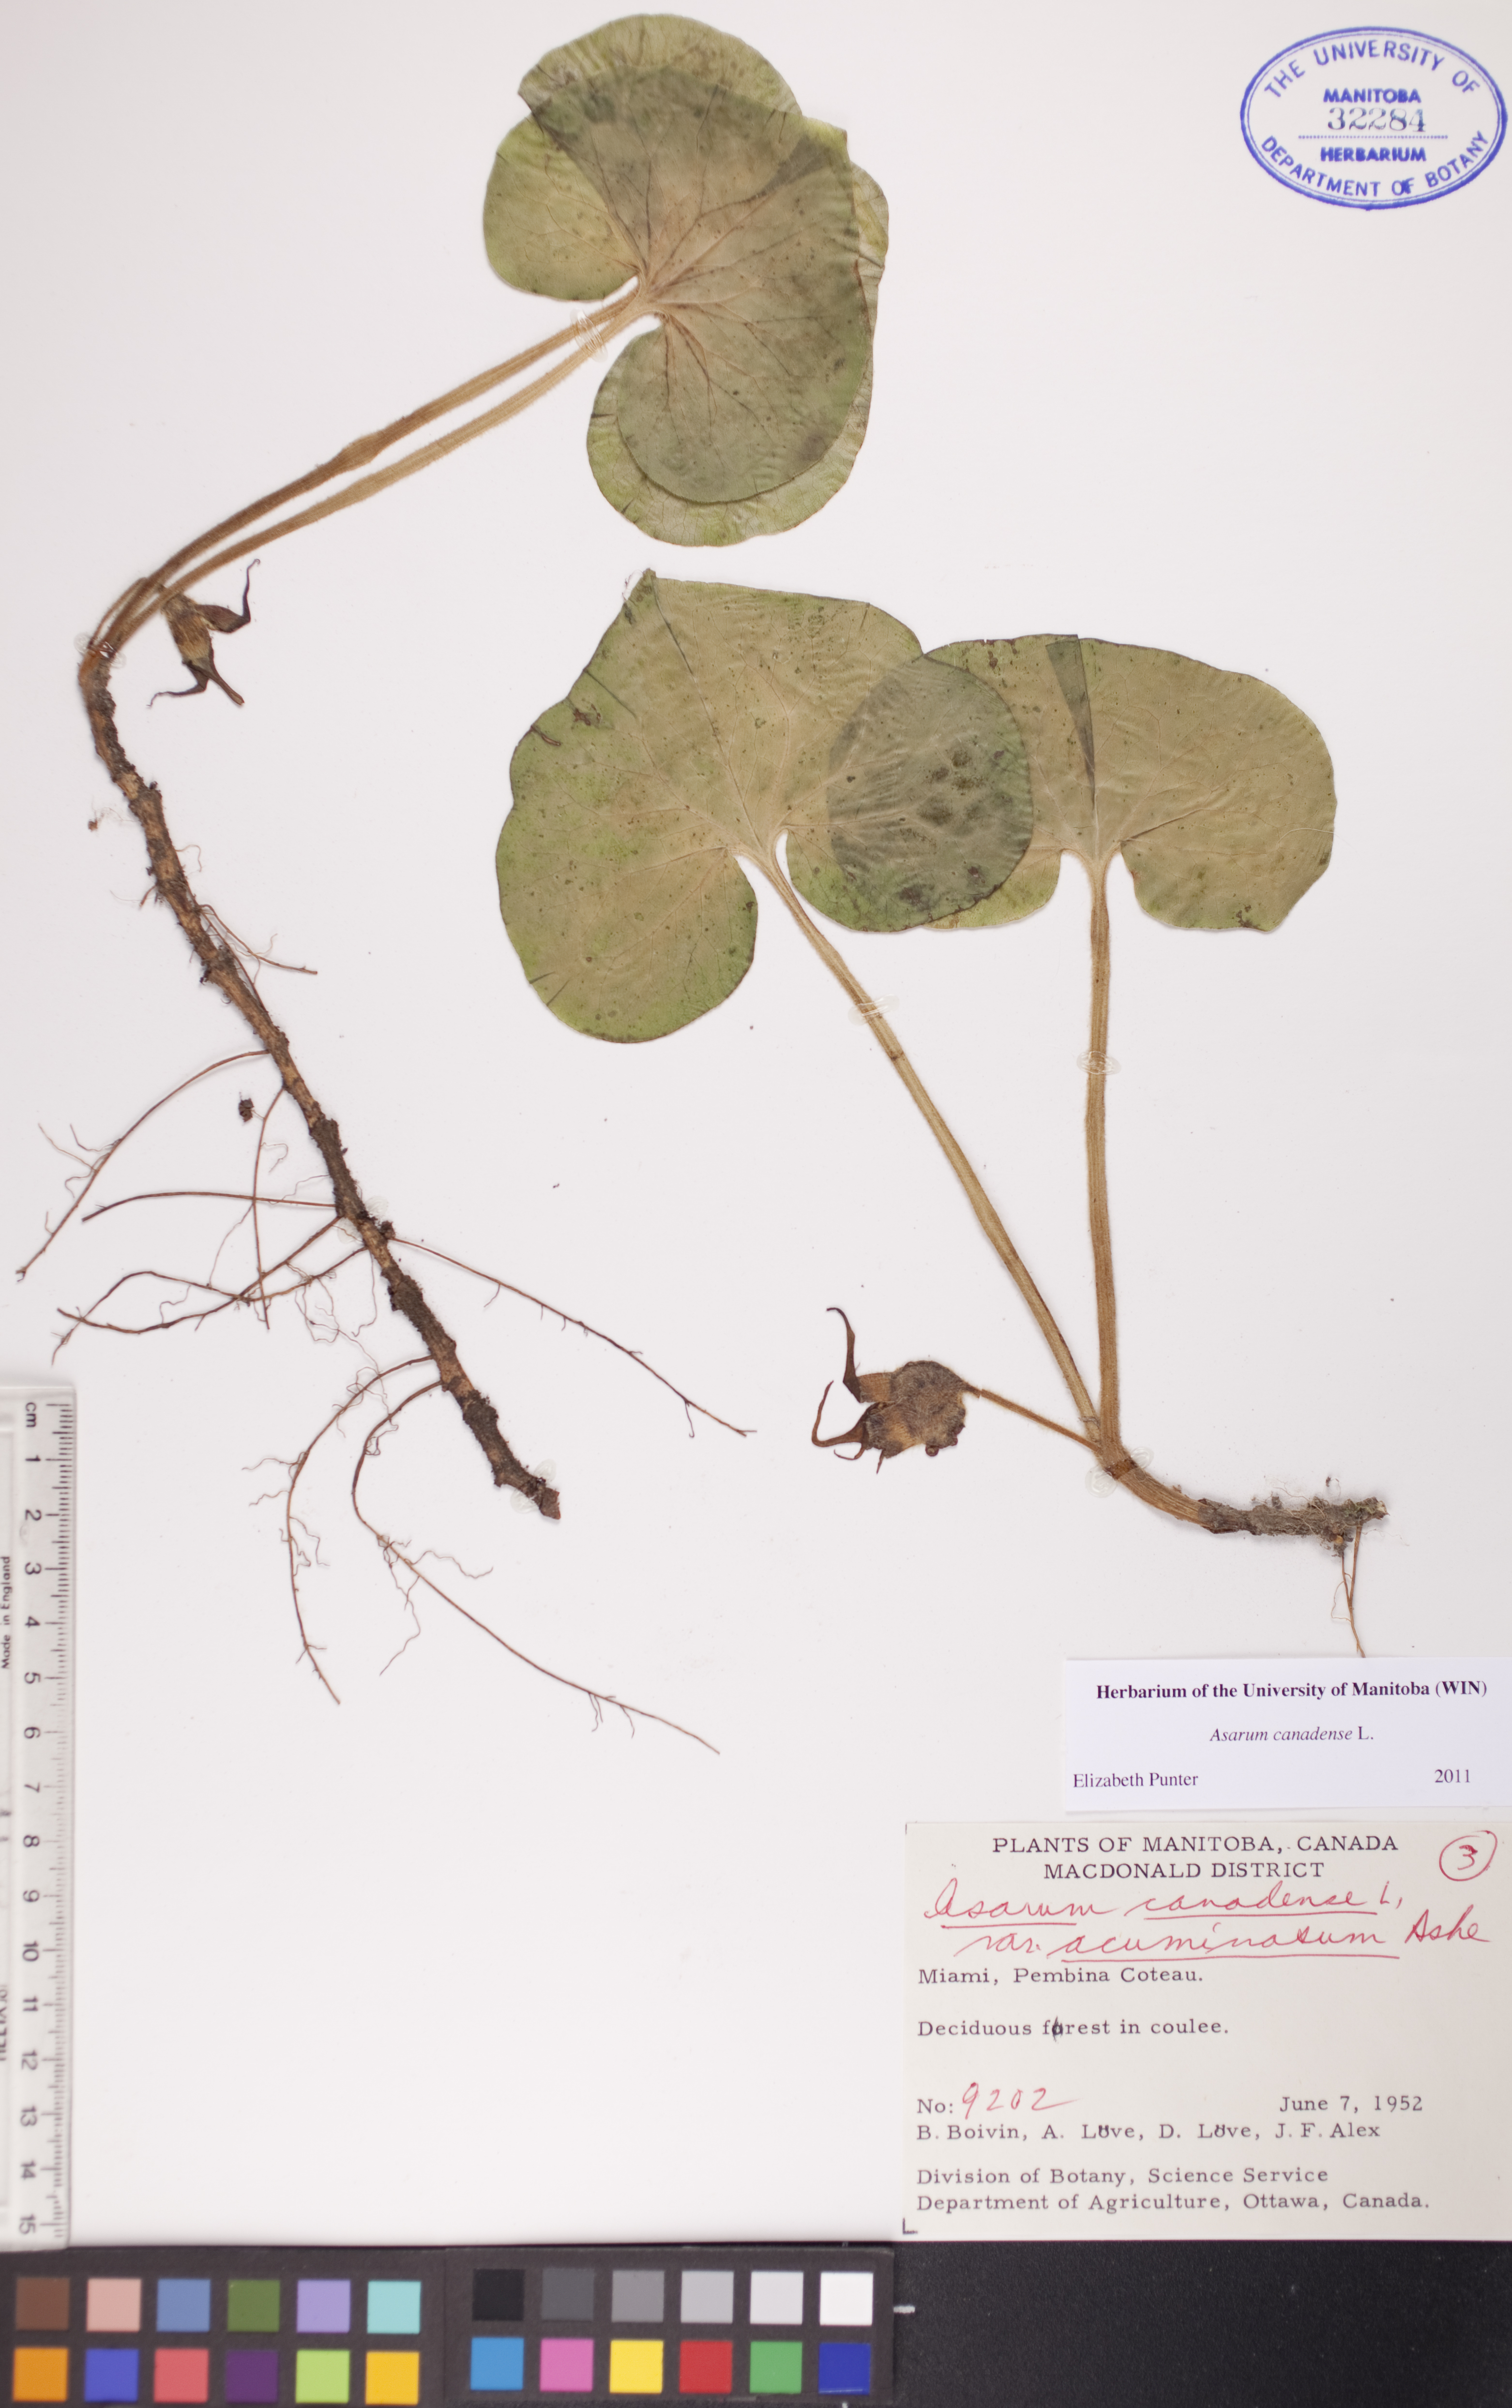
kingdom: Plantae
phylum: Tracheophyta
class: Magnoliopsida
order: Piperales
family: Aristolochiaceae
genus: Asarum
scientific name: Asarum canadense
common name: Wild ginger
